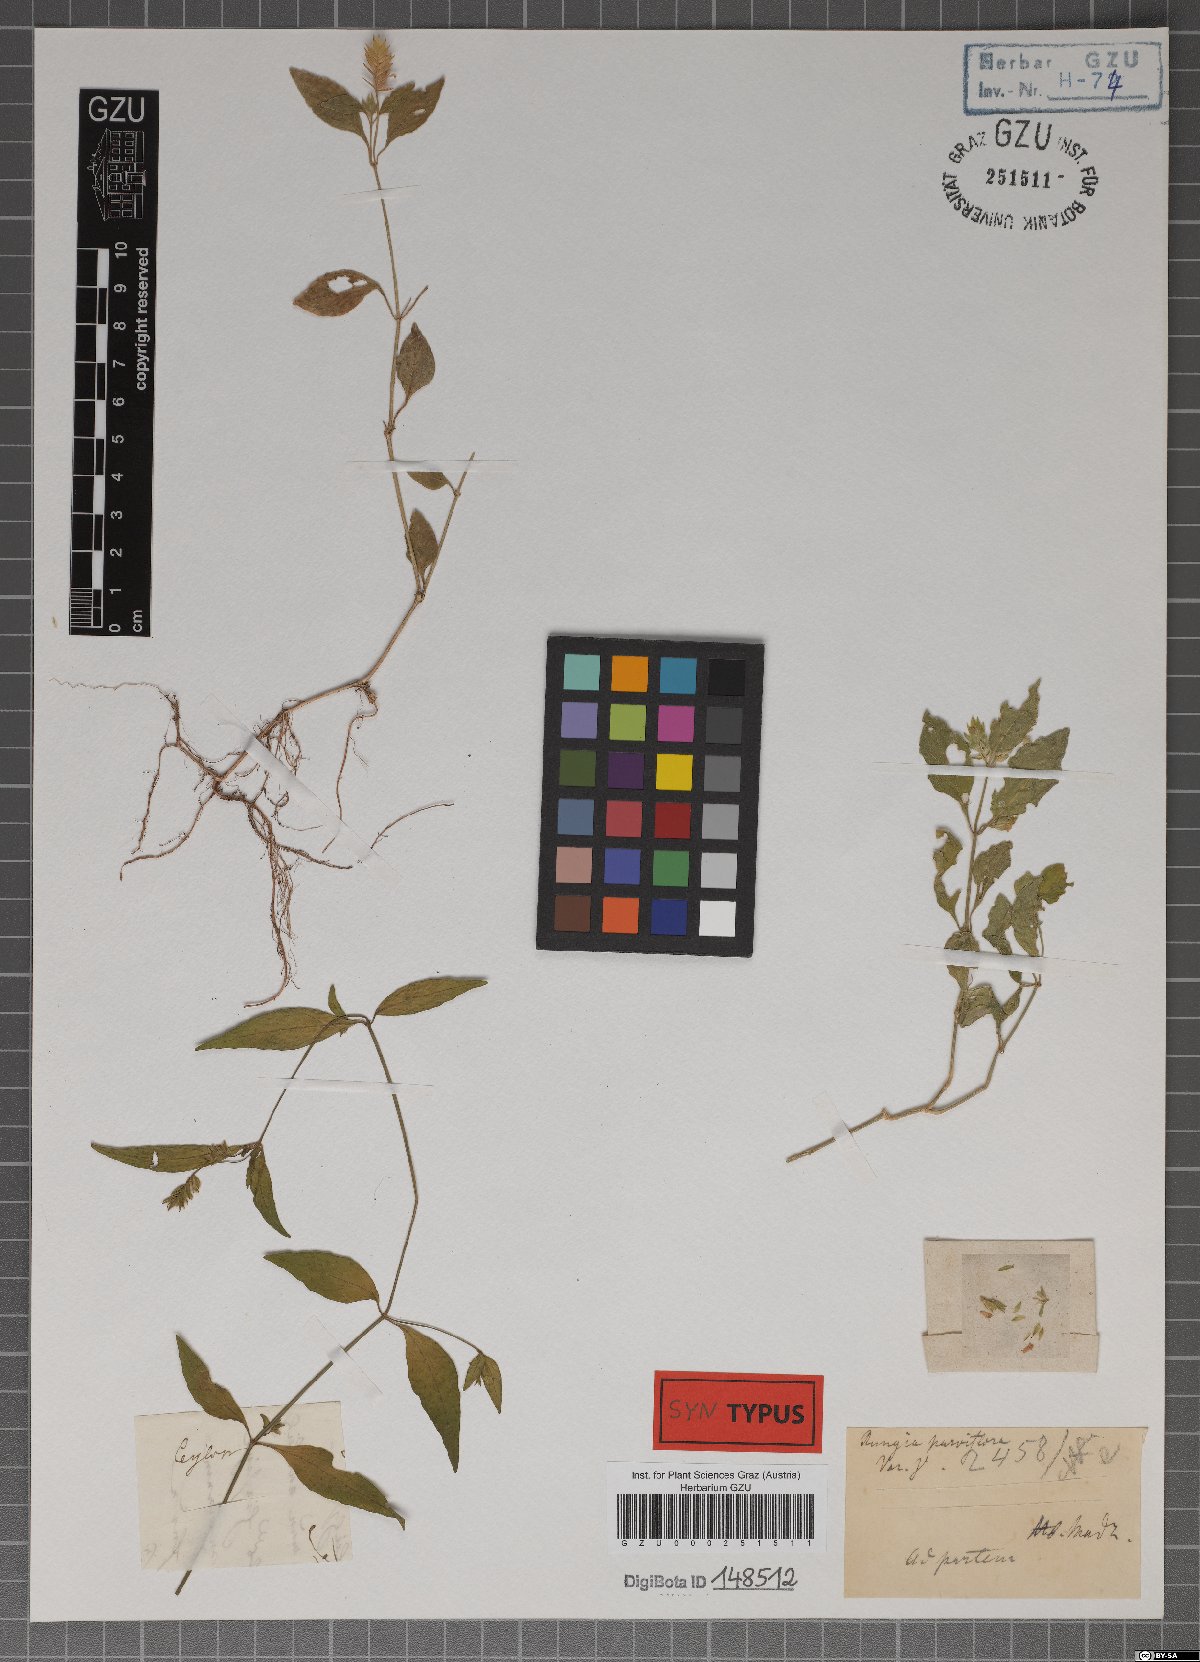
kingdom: Plantae
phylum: Tracheophyta
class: Magnoliopsida
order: Lamiales
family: Acanthaceae
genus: Rungia
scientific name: Rungia parviflora
